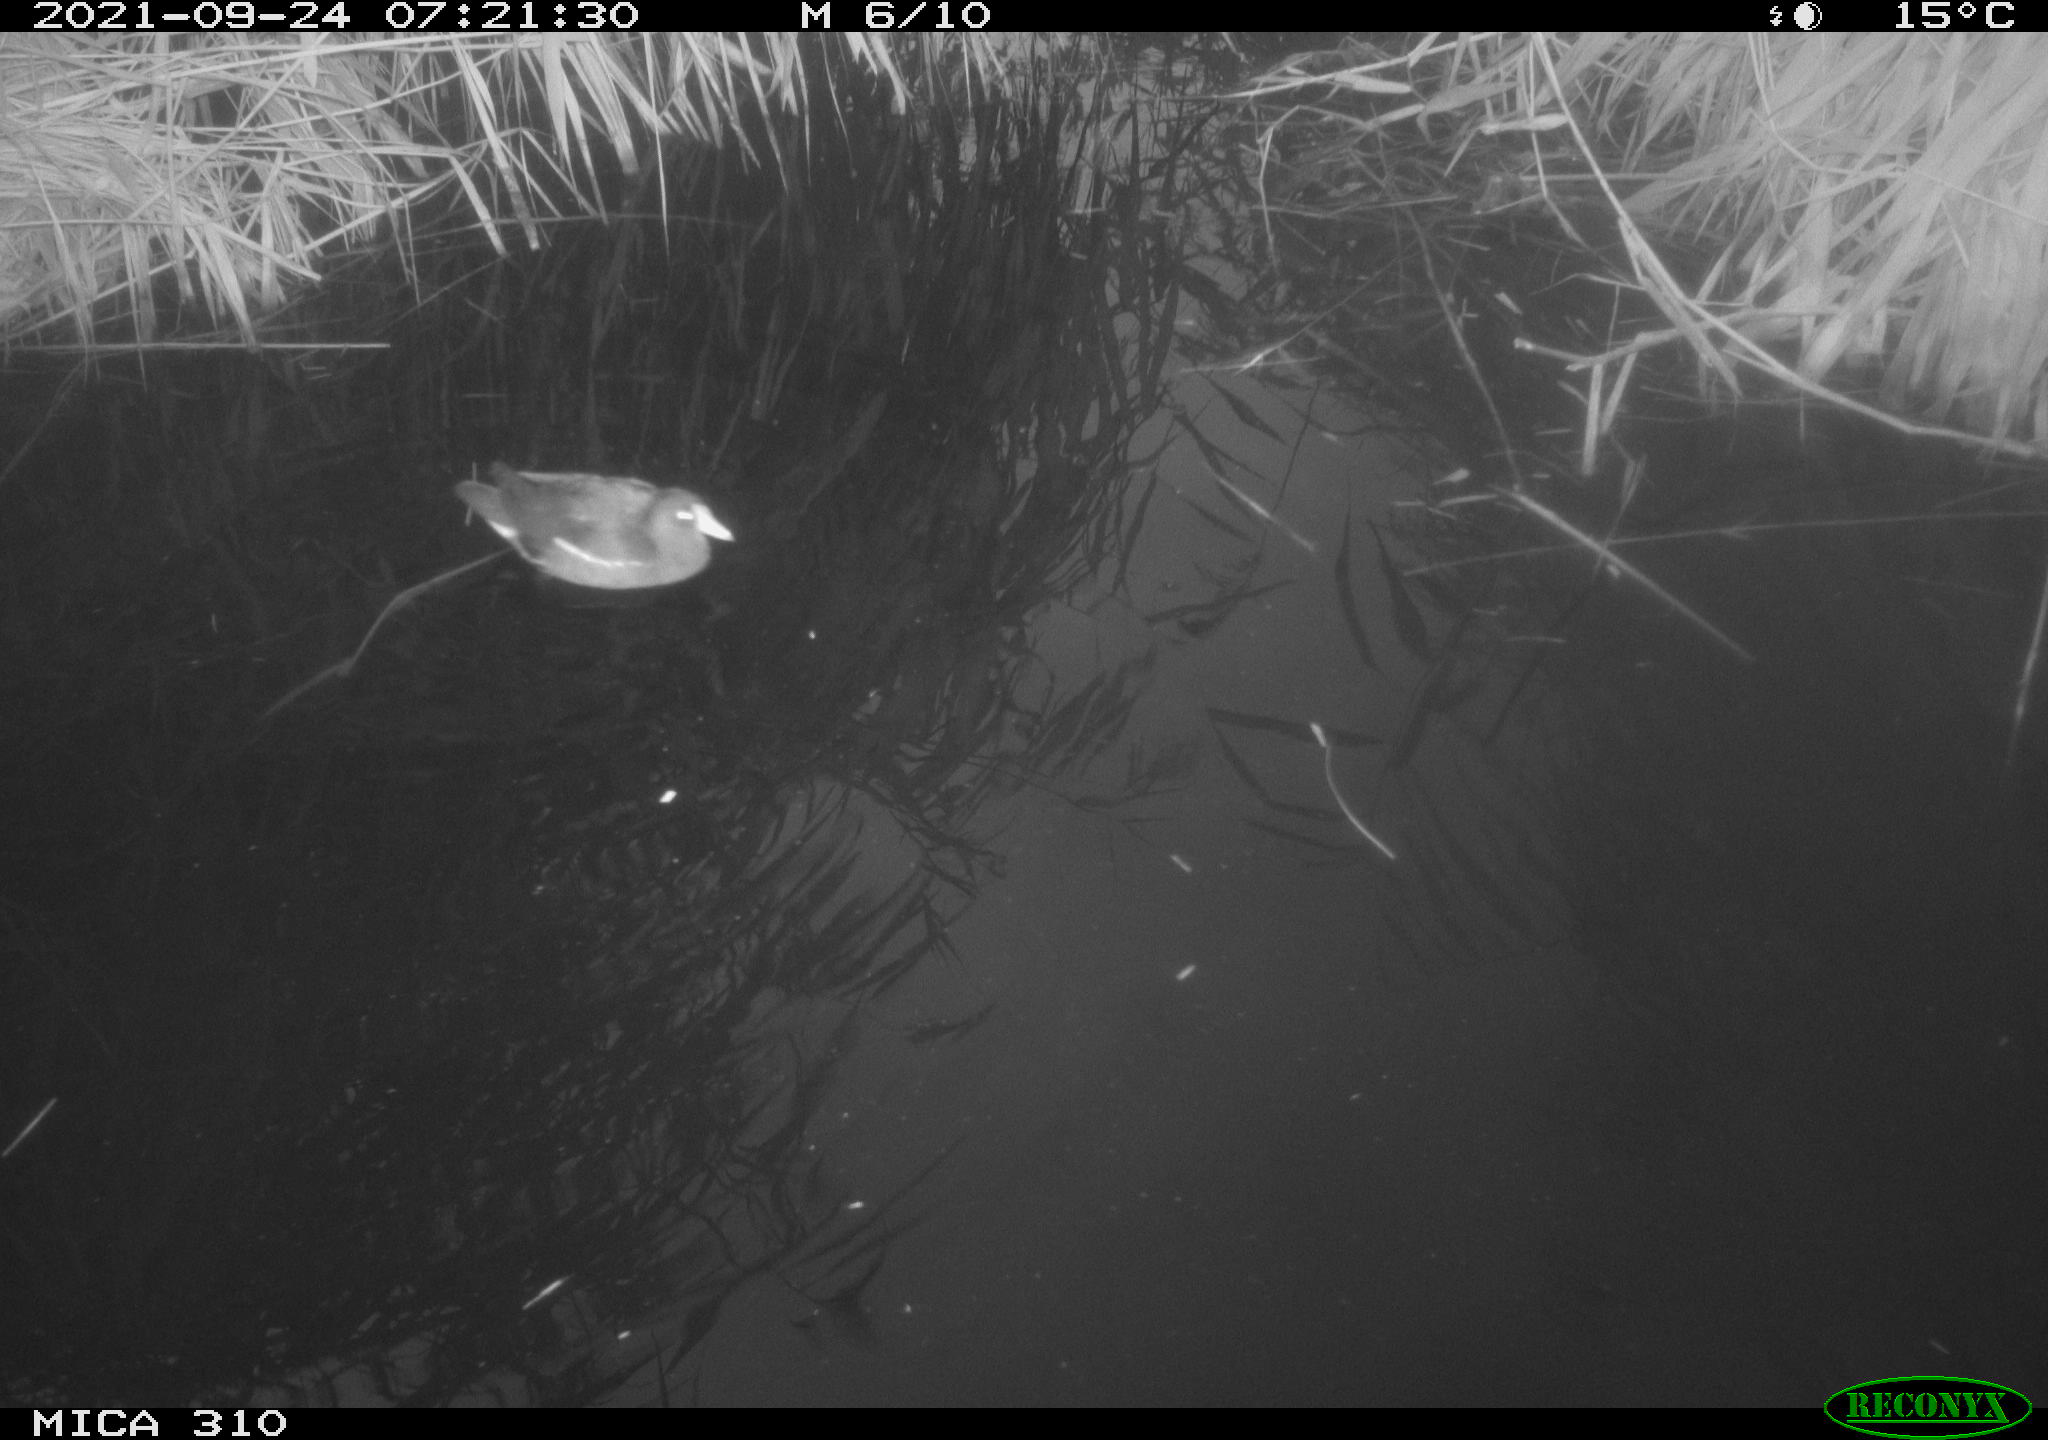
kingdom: Animalia
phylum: Chordata
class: Aves
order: Gruiformes
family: Rallidae
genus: Gallinula
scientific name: Gallinula chloropus
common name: Common moorhen
